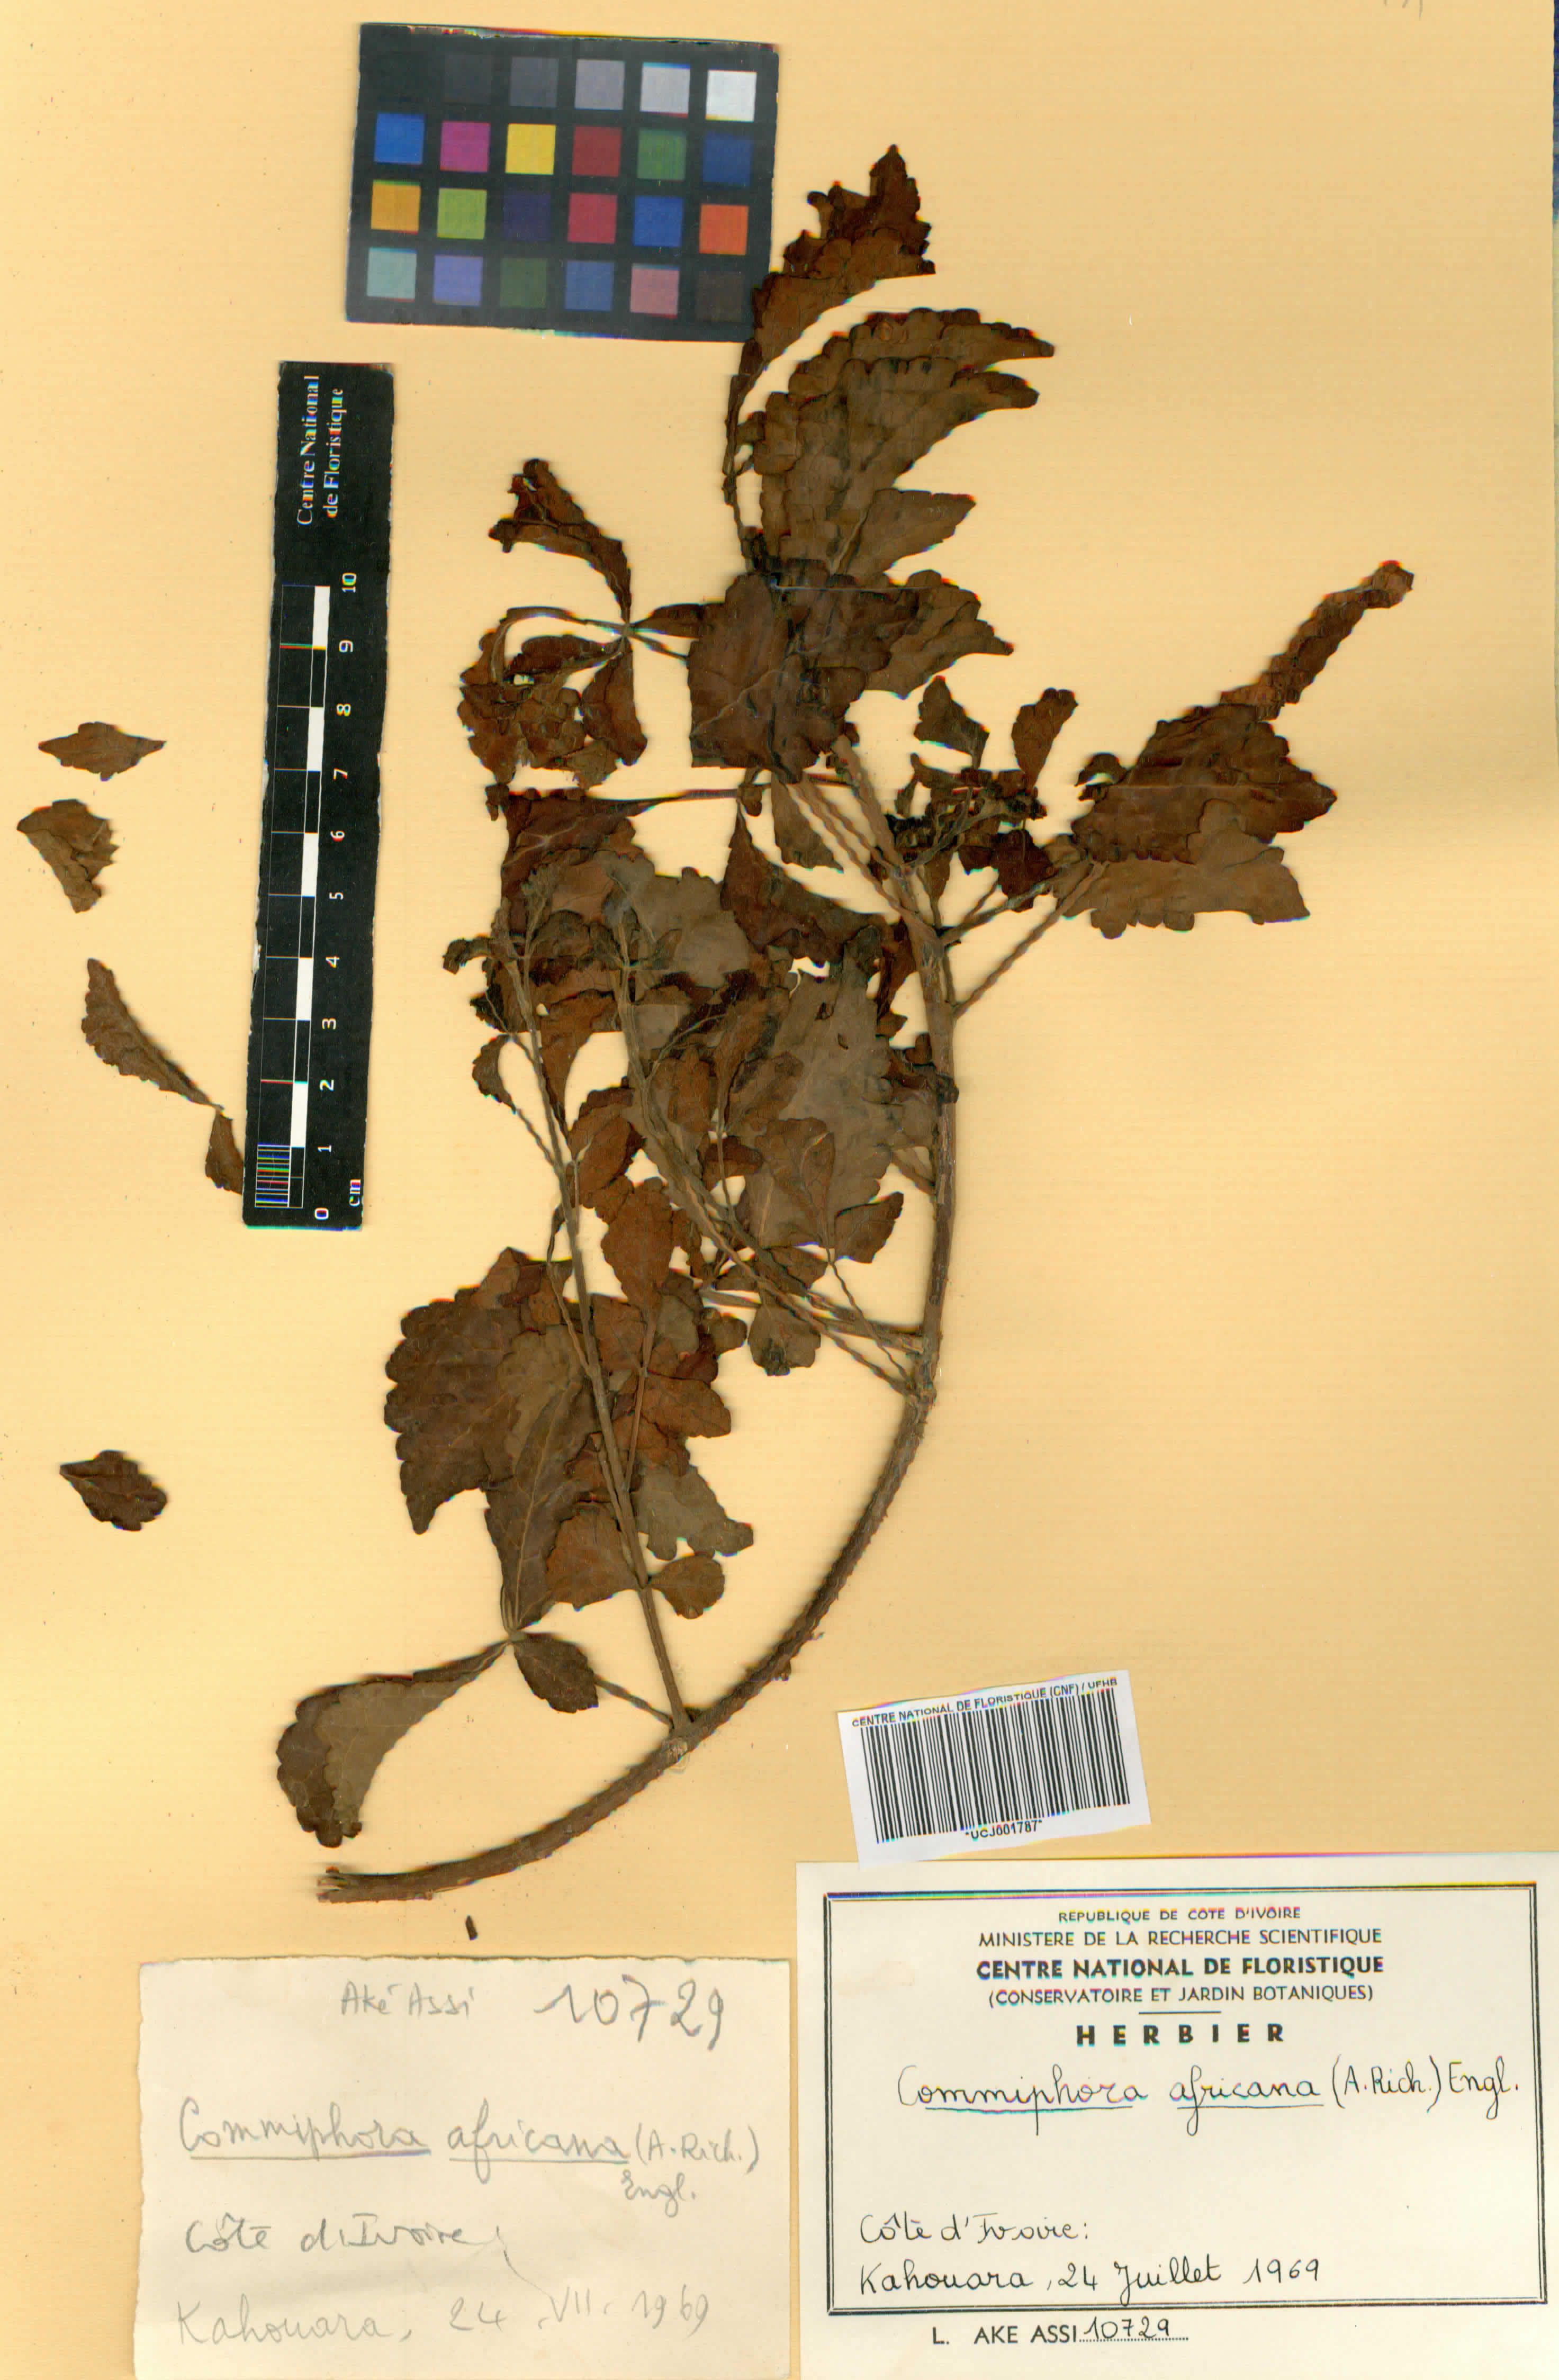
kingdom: Plantae
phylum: Tracheophyta
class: Magnoliopsida
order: Sapindales
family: Burseraceae
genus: Commiphora
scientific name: Commiphora africana
